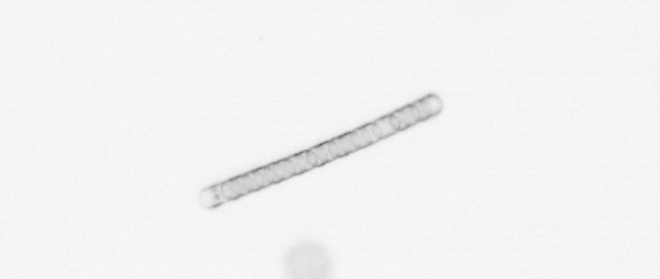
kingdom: Chromista
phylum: Ochrophyta
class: Bacillariophyceae
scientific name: Bacillariophyceae
